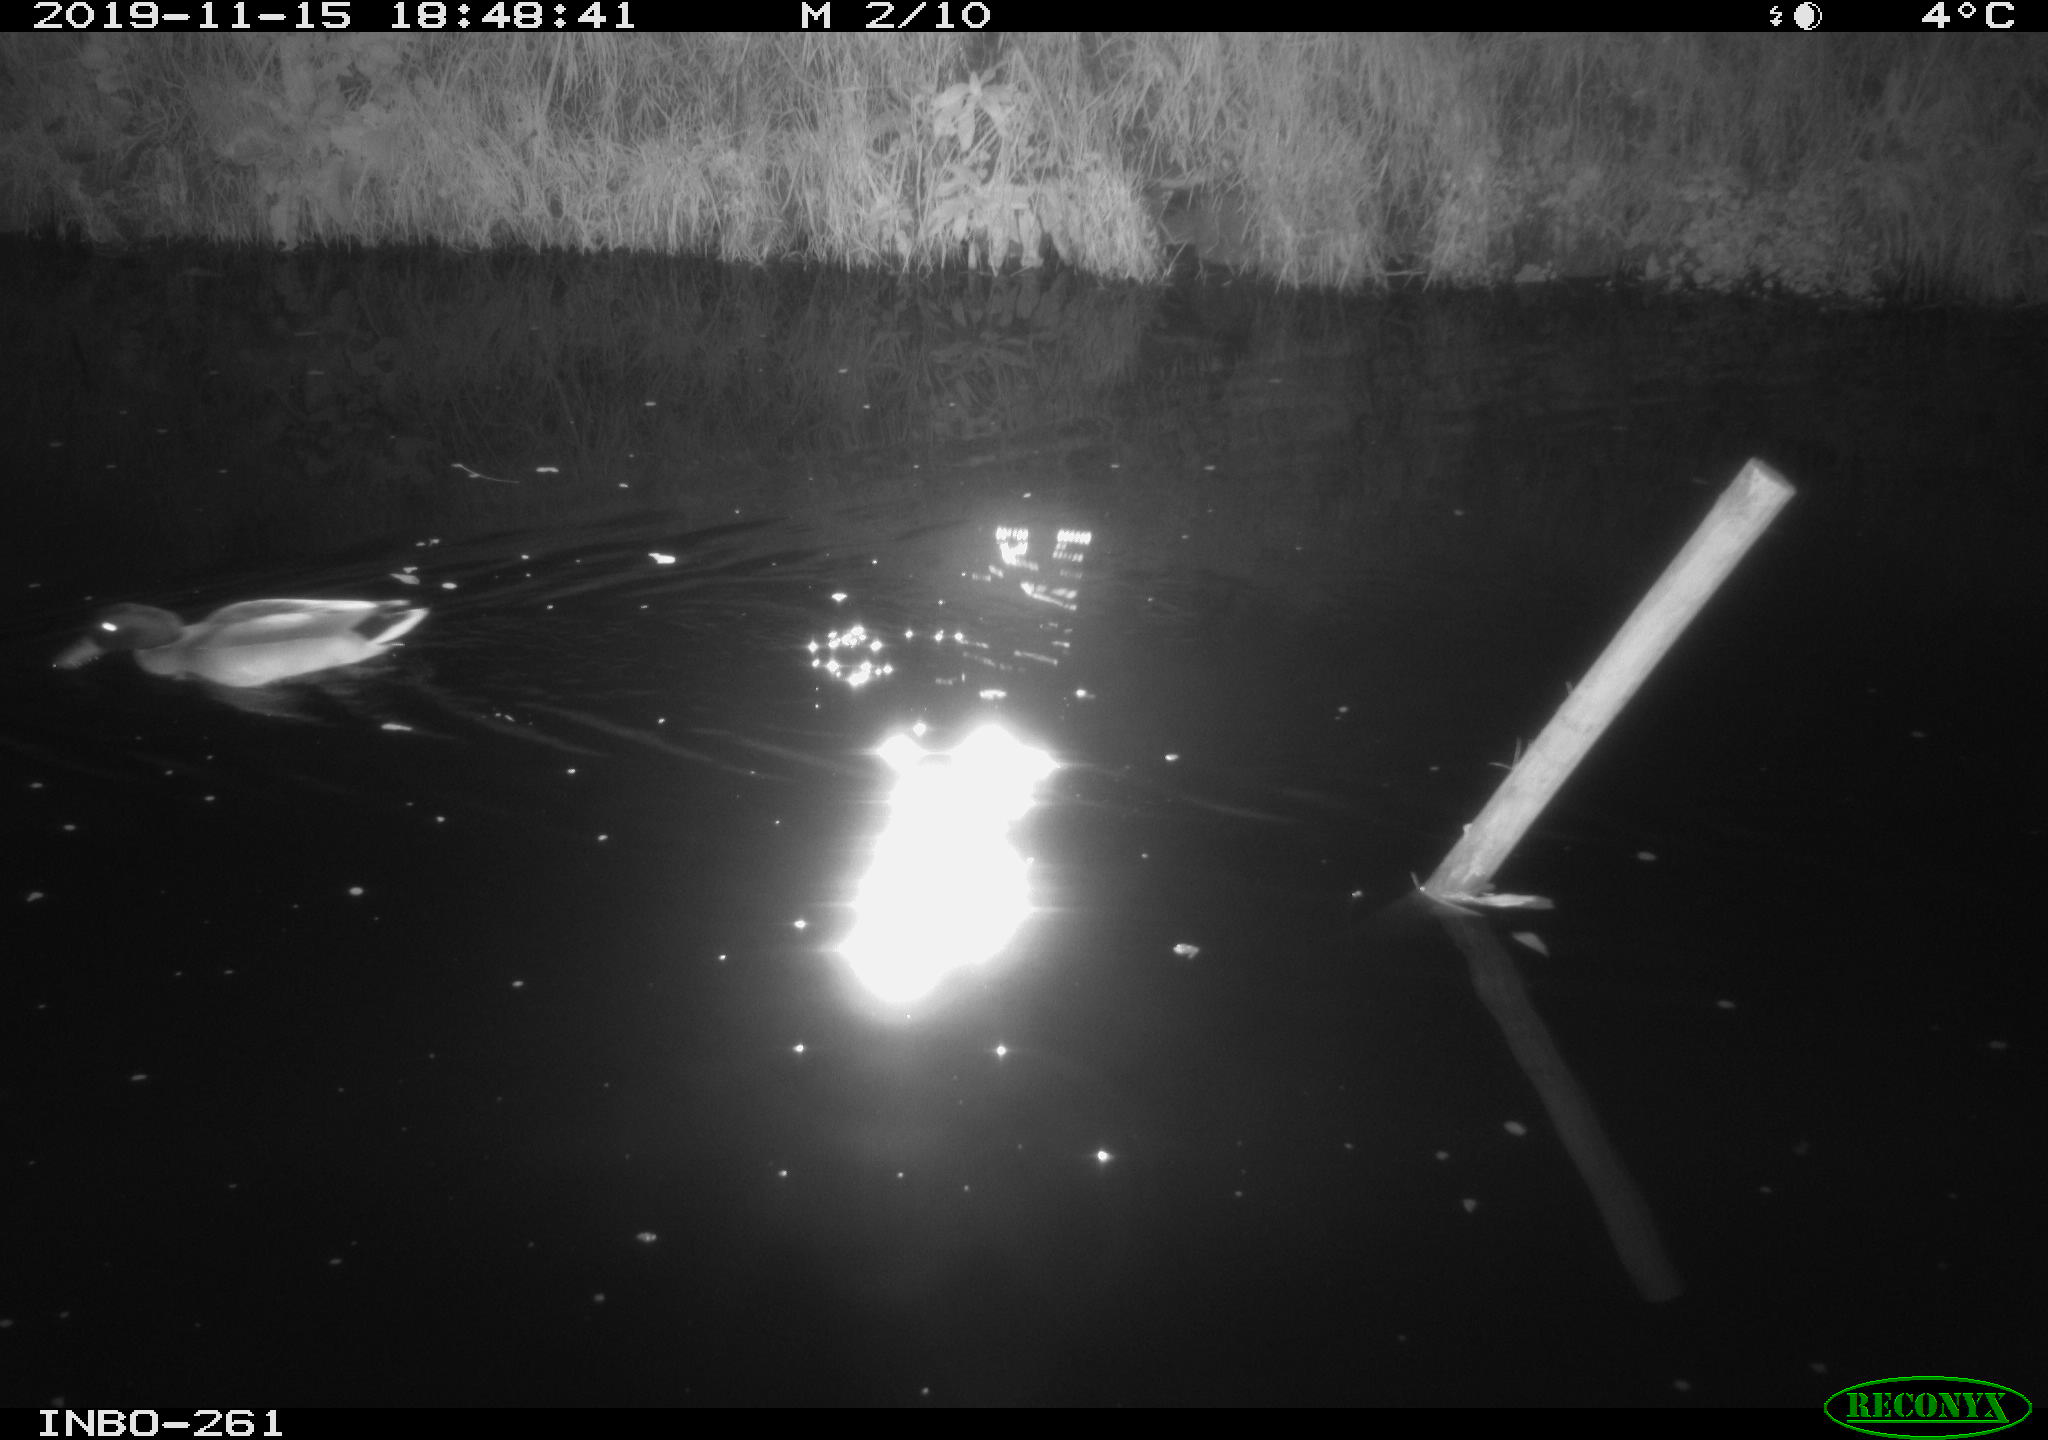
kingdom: Animalia
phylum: Chordata
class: Aves
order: Anseriformes
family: Anatidae
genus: Anas
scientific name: Anas platyrhynchos
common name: Mallard
